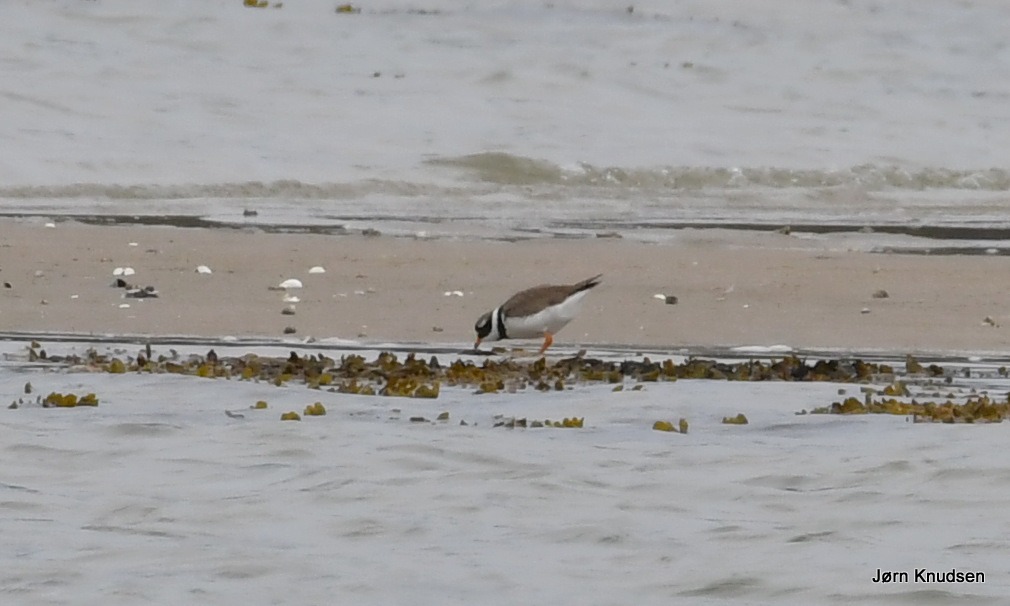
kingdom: Animalia
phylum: Chordata
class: Aves
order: Charadriiformes
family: Charadriidae
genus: Charadrius
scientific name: Charadrius hiaticula
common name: Stor præstekrave
